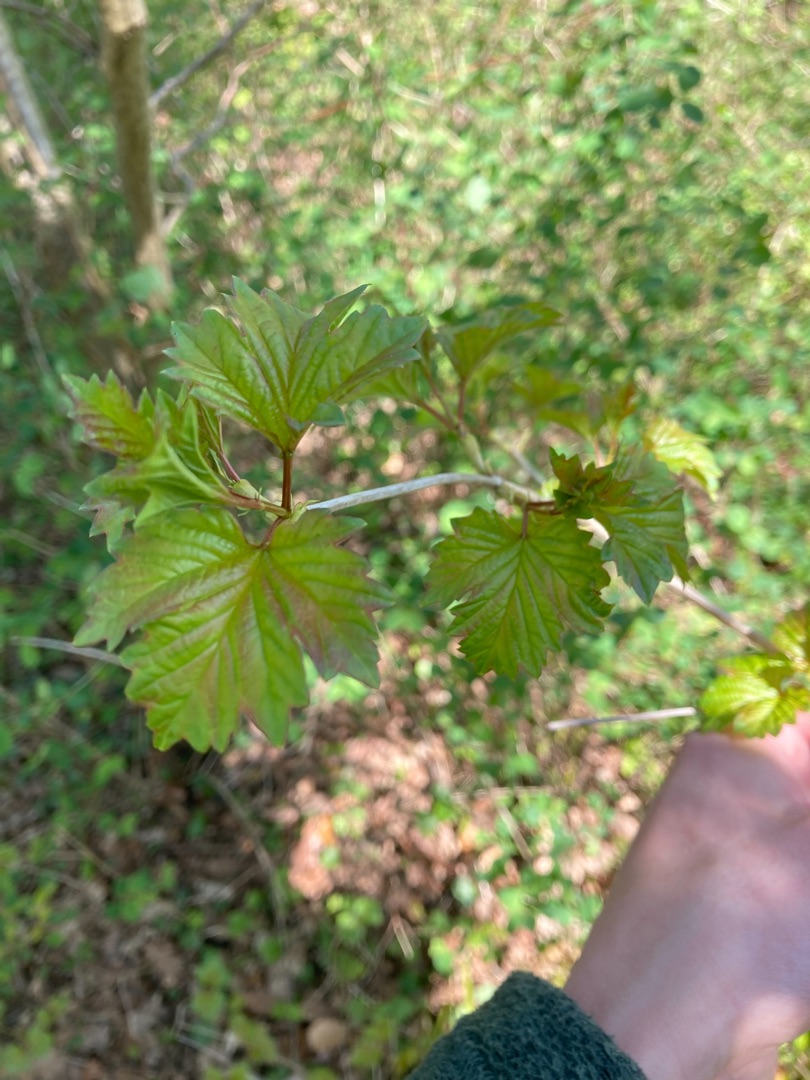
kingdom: Plantae
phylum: Tracheophyta
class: Magnoliopsida
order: Dipsacales
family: Viburnaceae
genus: Viburnum
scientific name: Viburnum opulus
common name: Kvalkved
